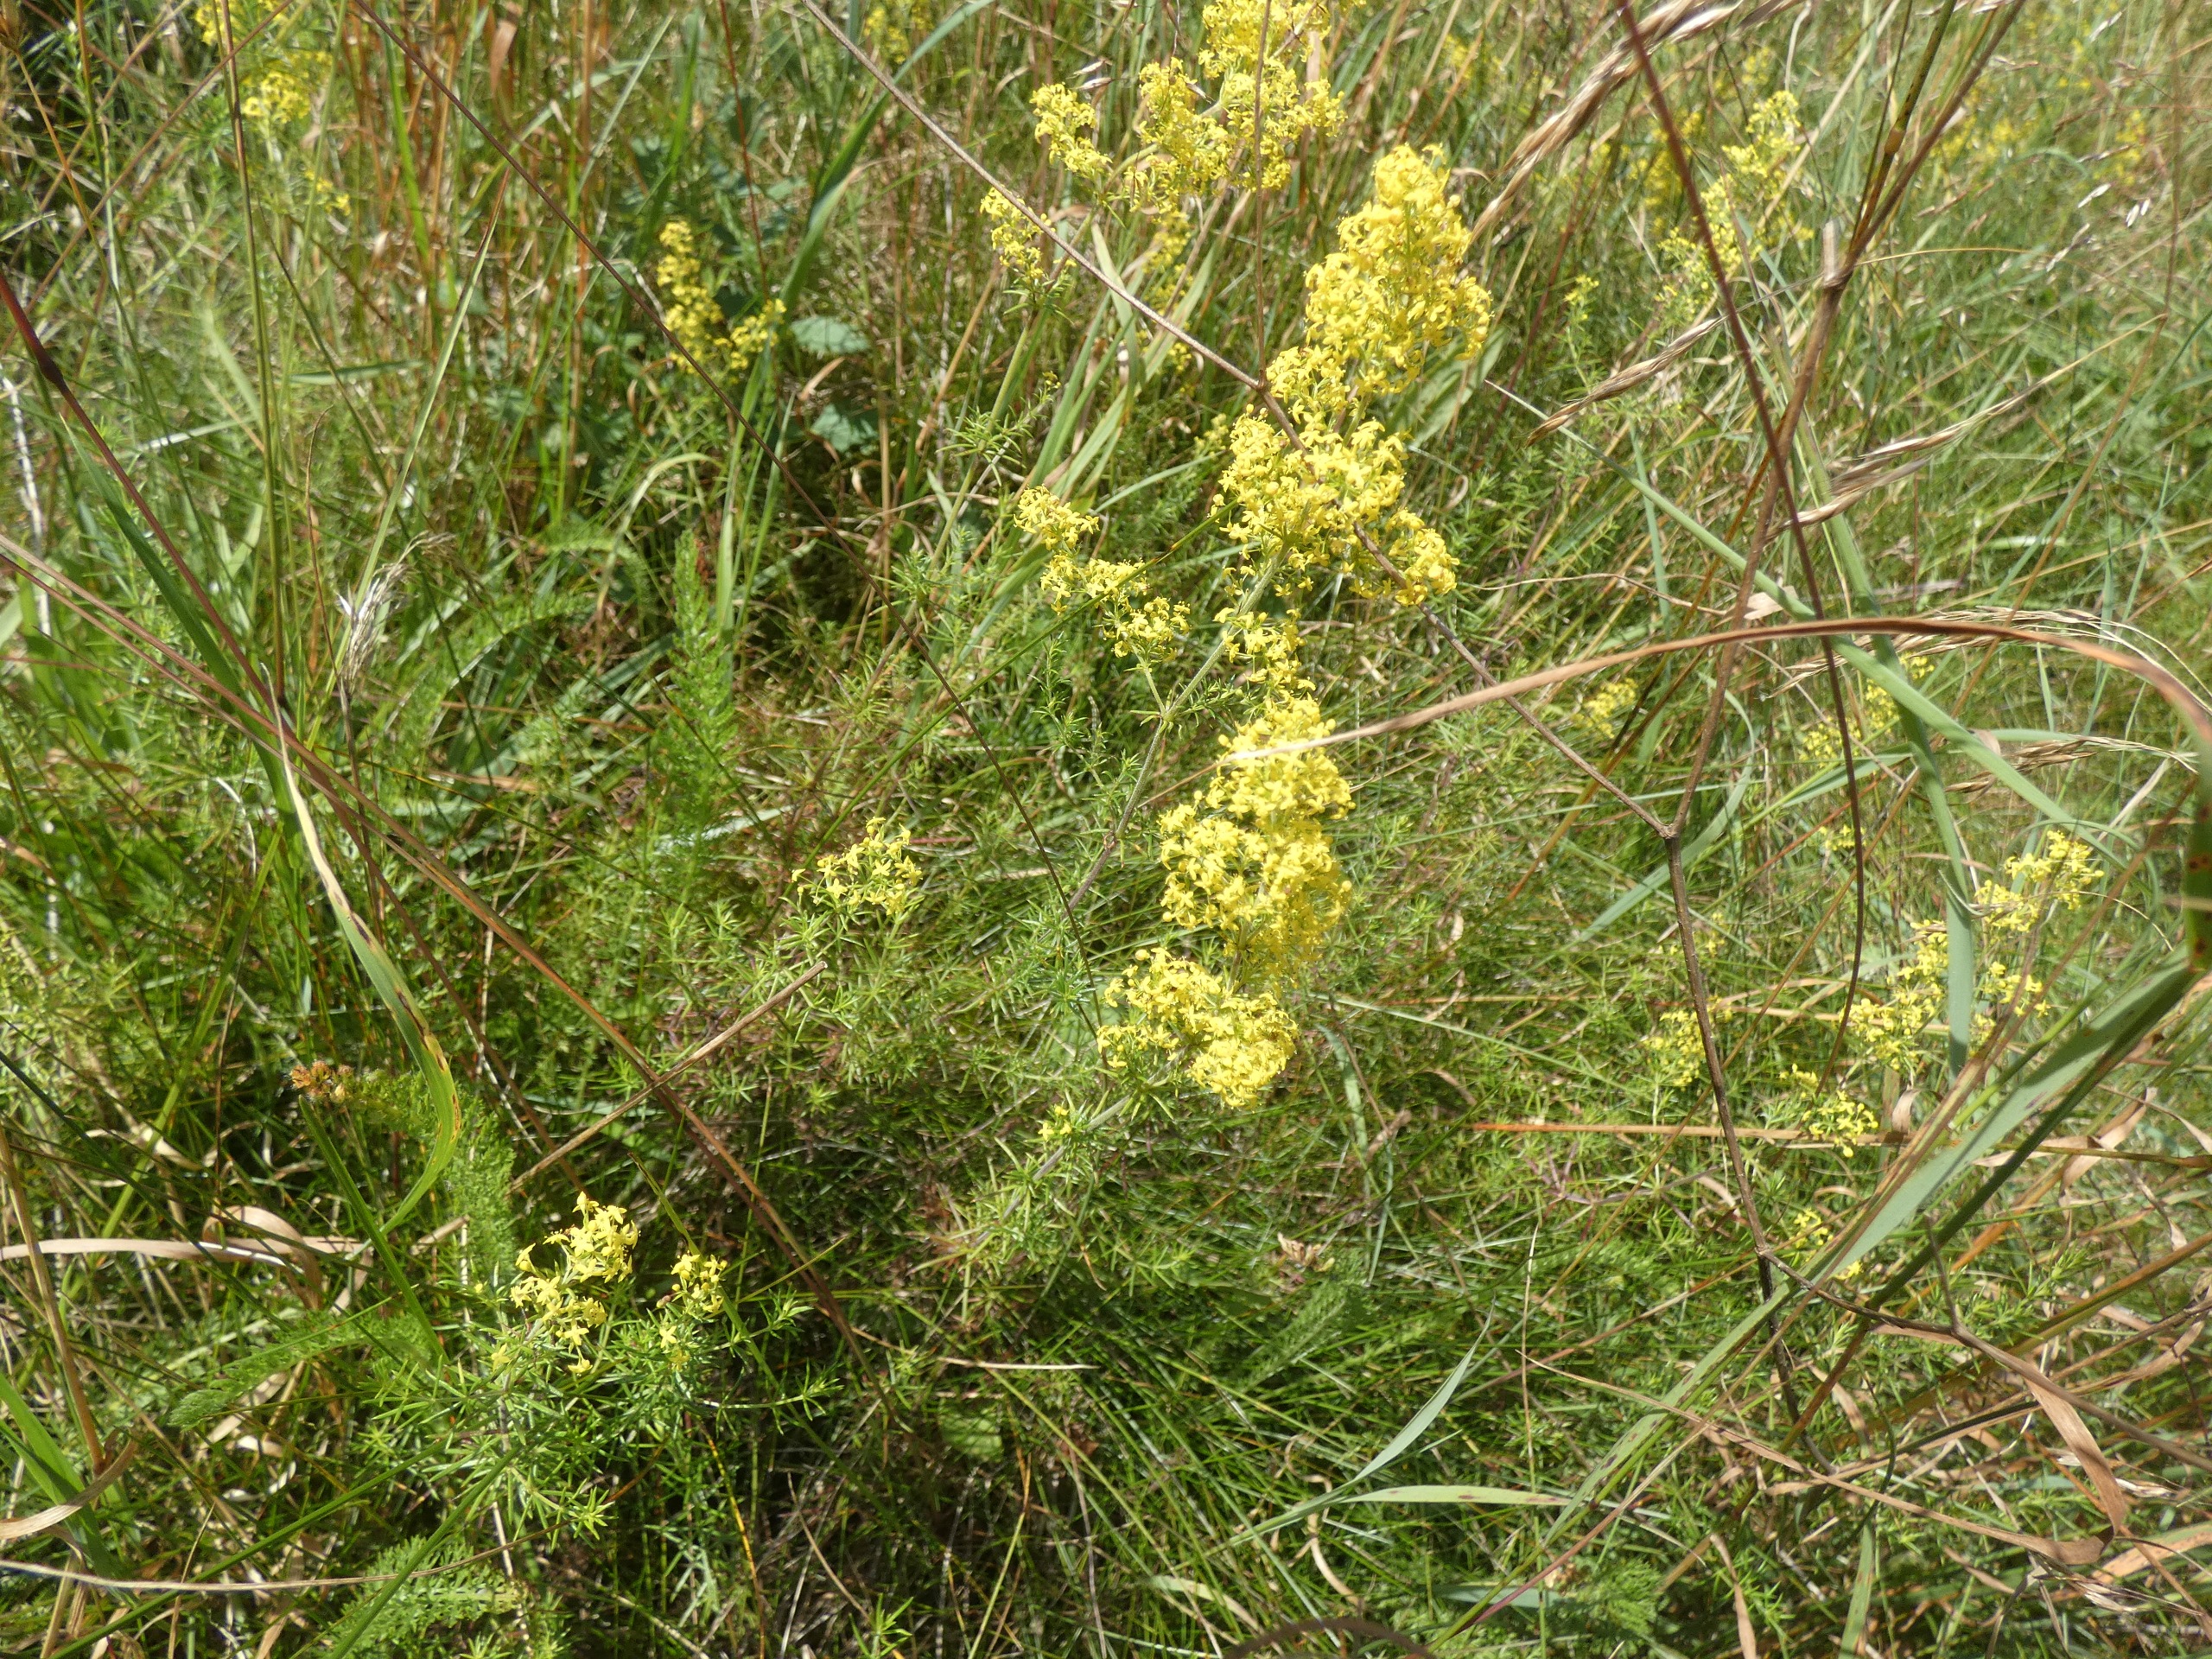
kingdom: Plantae
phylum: Tracheophyta
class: Magnoliopsida
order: Gentianales
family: Rubiaceae
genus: Galium
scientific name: Galium verum
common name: Gul snerre
